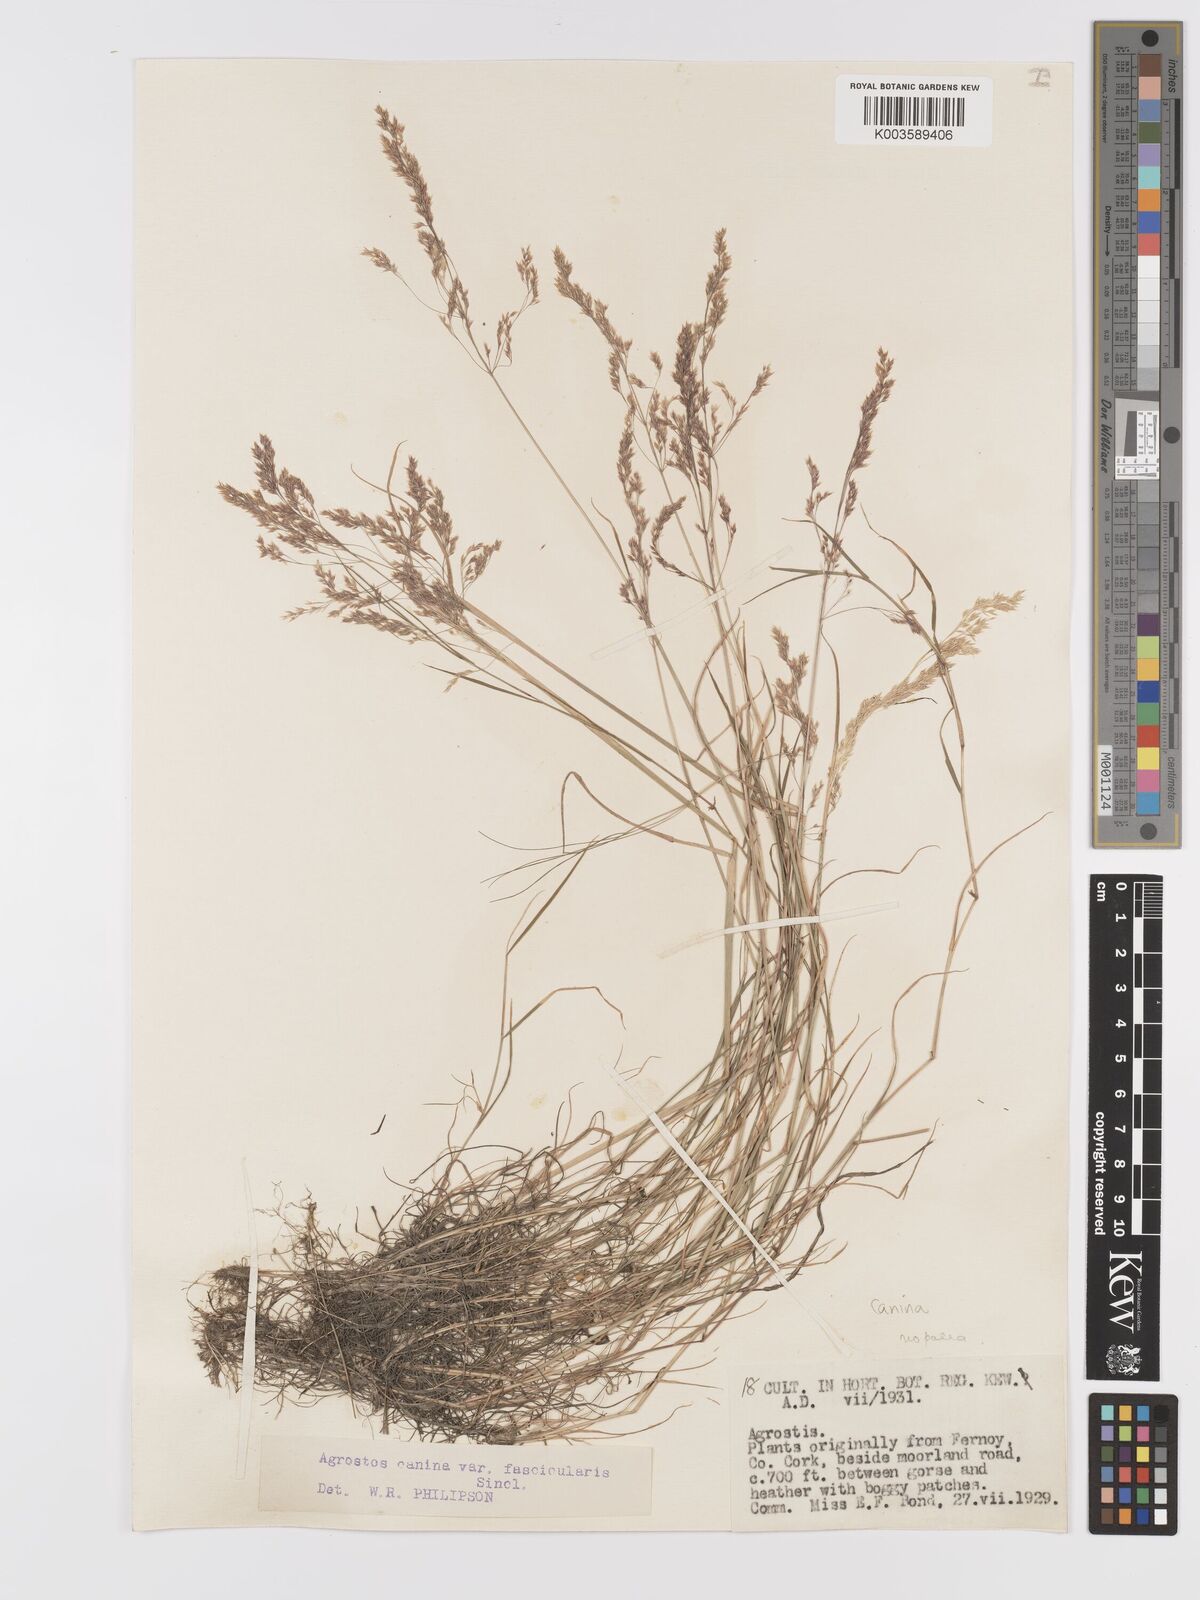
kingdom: Plantae
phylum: Tracheophyta
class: Liliopsida
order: Poales
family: Poaceae
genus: Agrostis
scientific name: Agrostis canina
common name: Velvet bent
